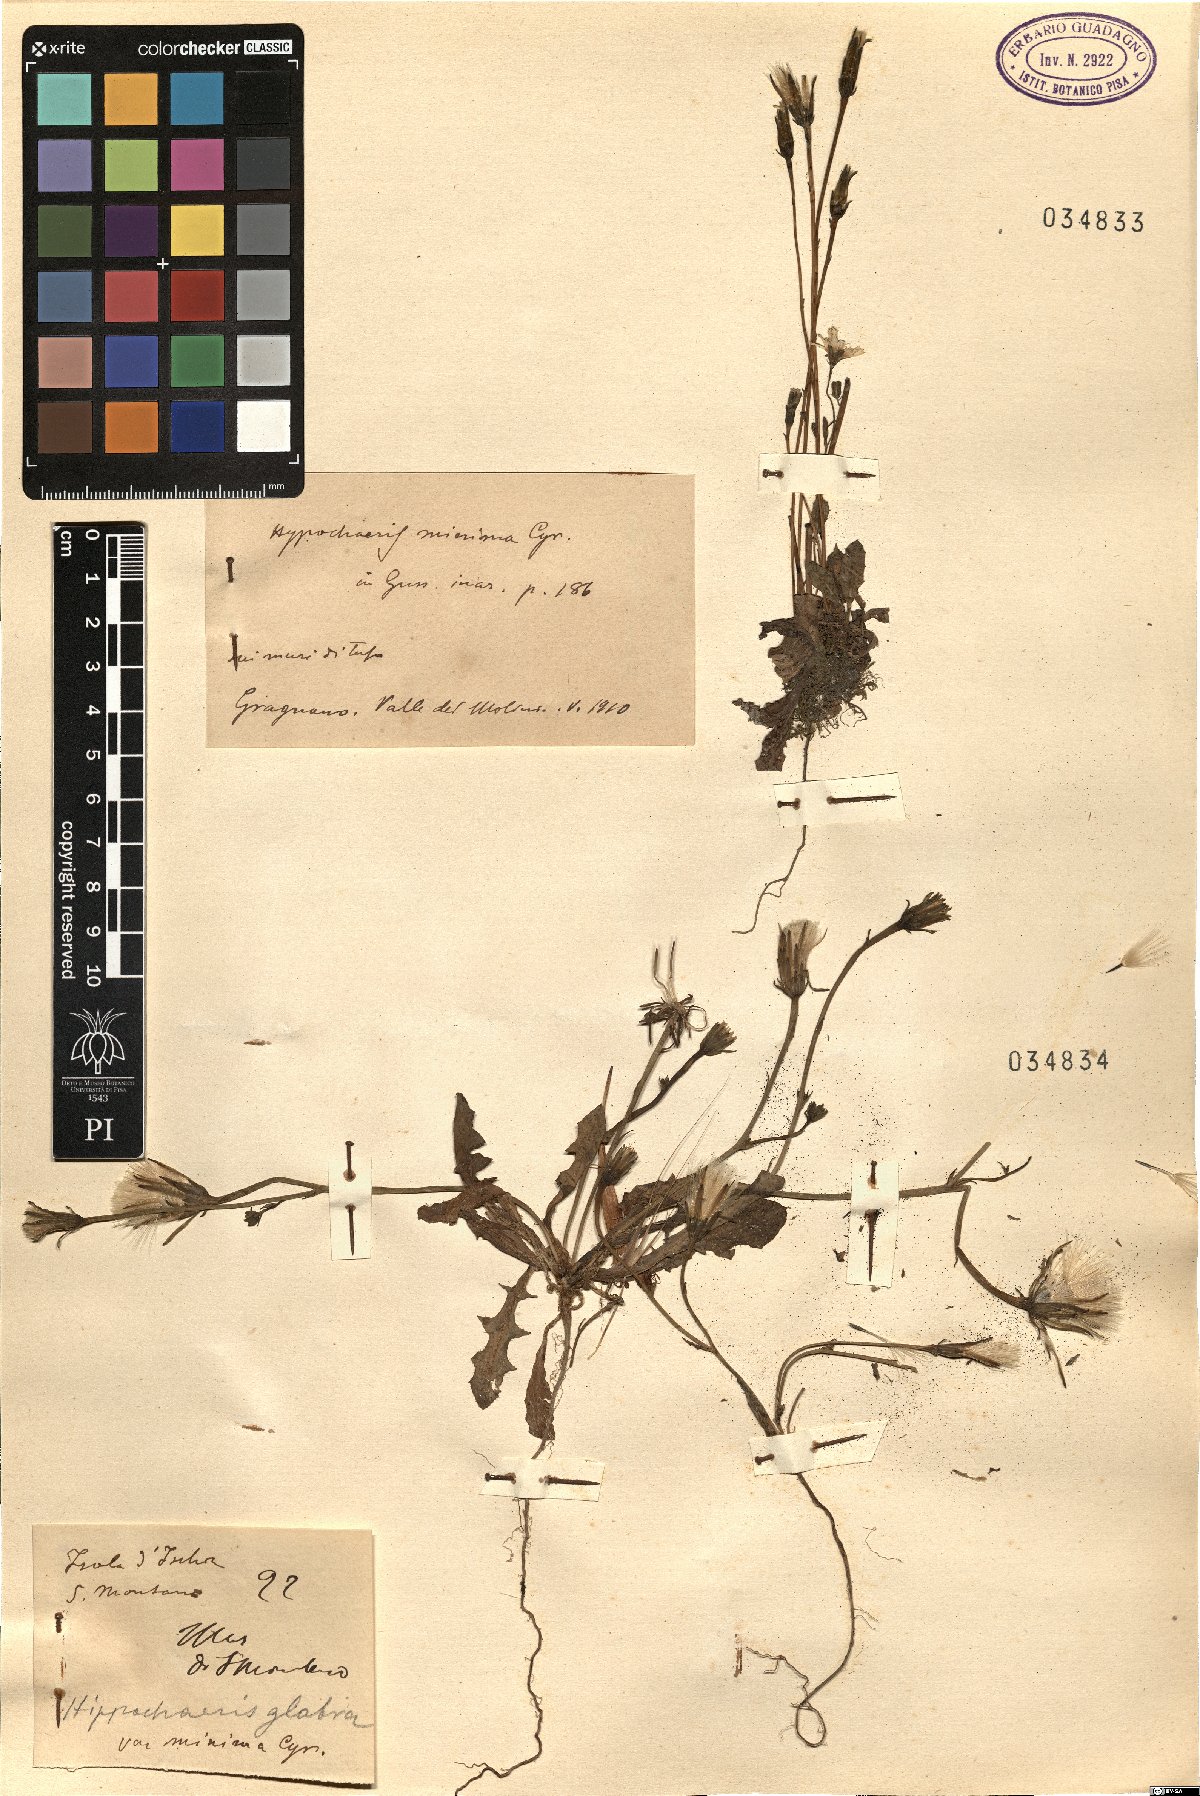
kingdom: Plantae
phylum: Tracheophyta
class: Magnoliopsida
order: Asterales
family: Asteraceae
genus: Hypochaeris
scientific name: Hypochaeris arachnoides
